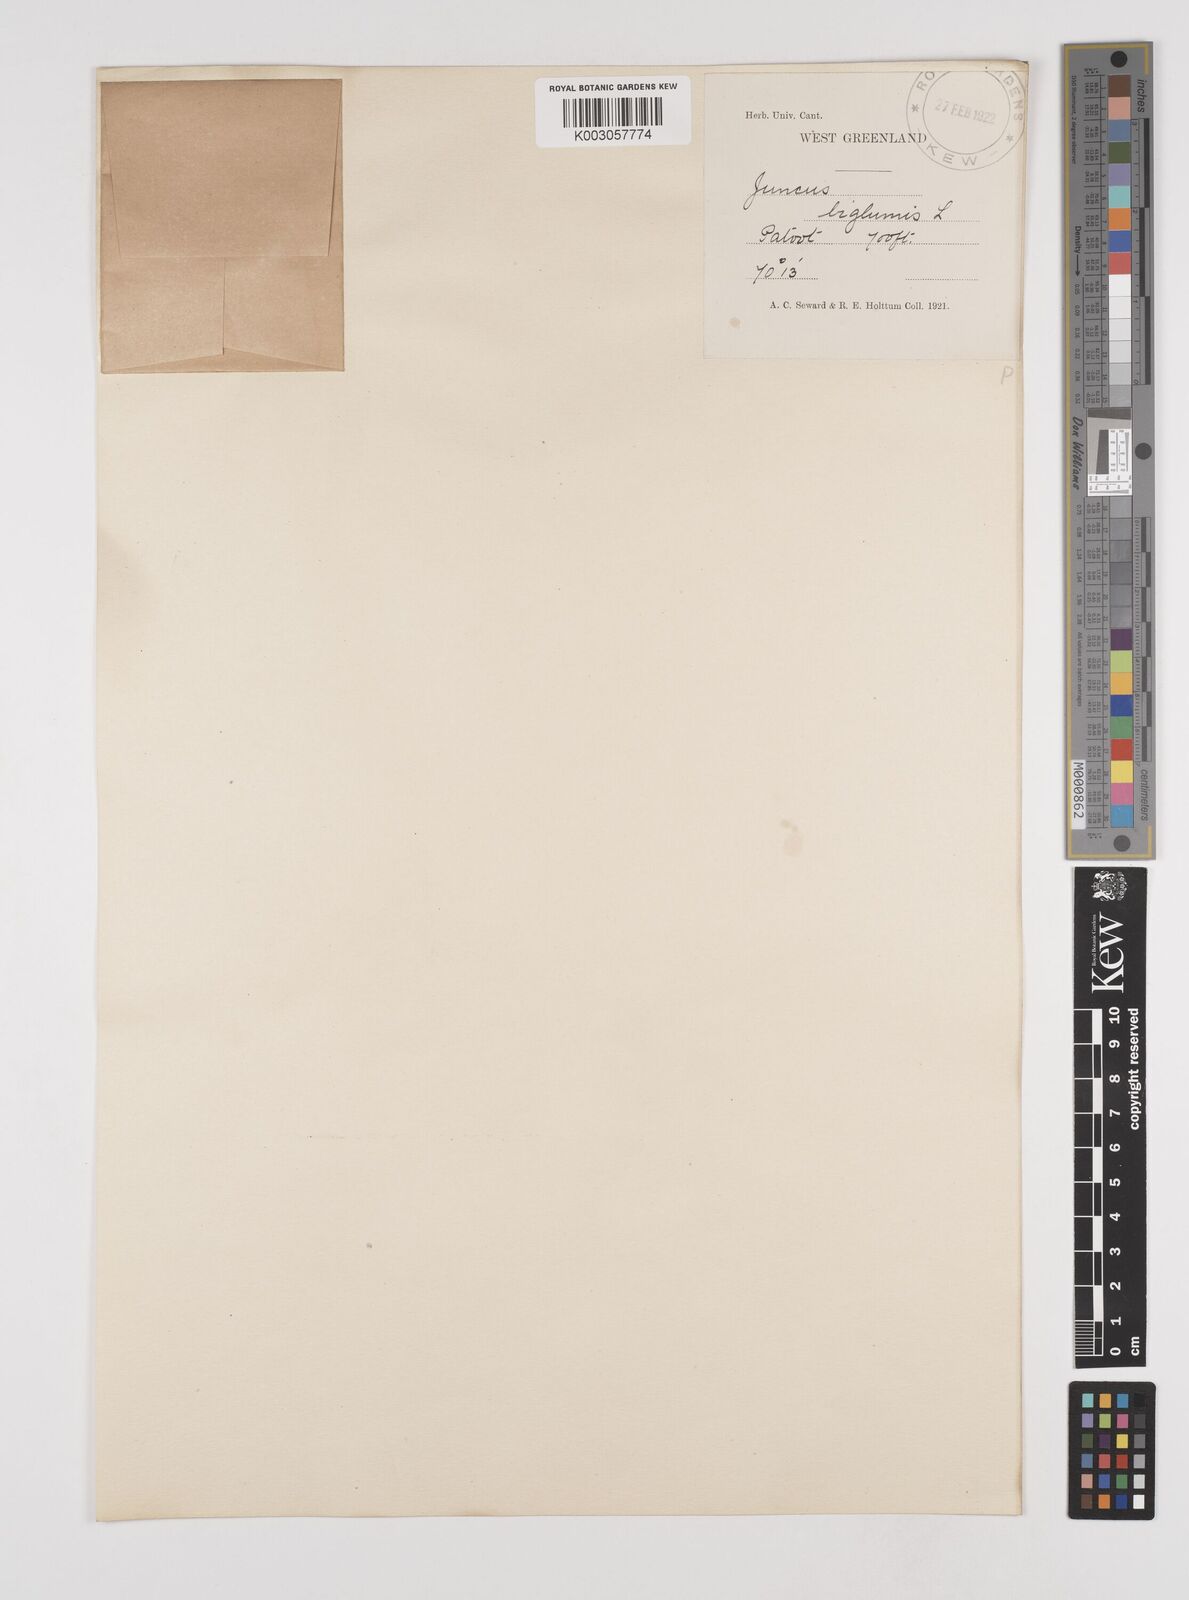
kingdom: Plantae
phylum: Tracheophyta
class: Liliopsida
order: Poales
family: Juncaceae
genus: Juncus
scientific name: Juncus biglumis
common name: Two-flowered rush
